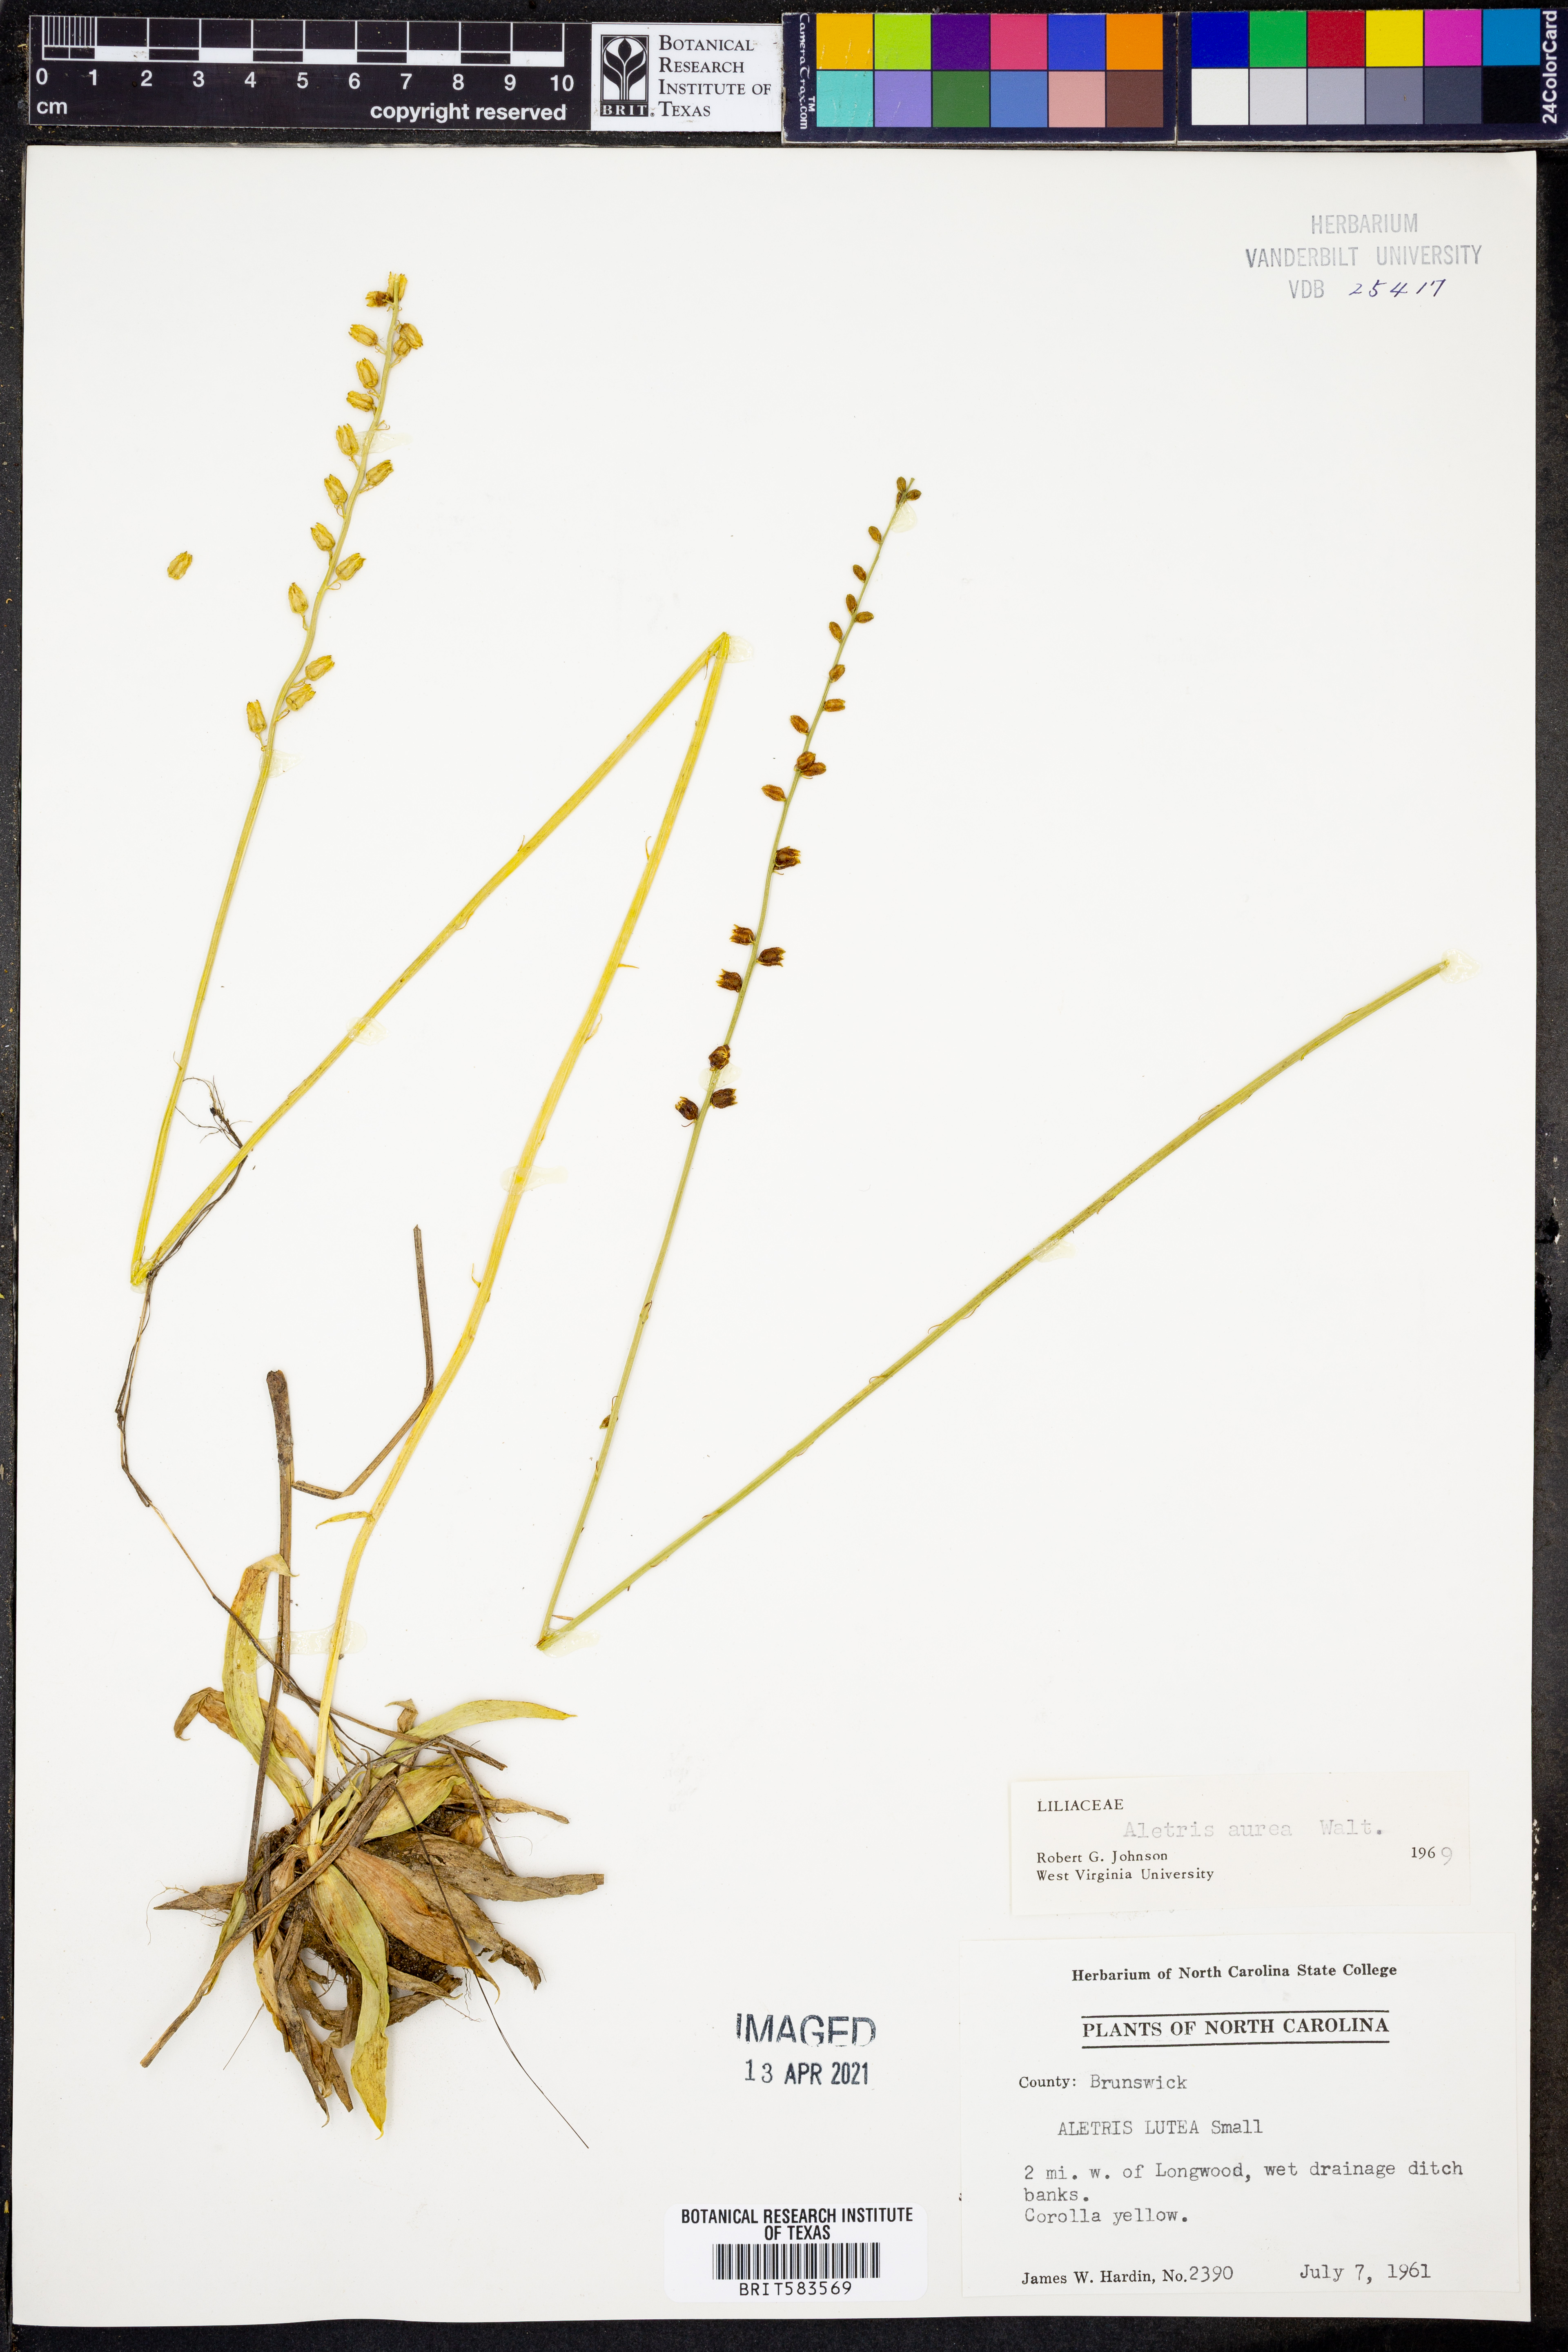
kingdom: Plantae
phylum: Tracheophyta
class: Liliopsida
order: Dioscoreales
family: Nartheciaceae
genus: Aletris
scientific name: Aletris aurea
